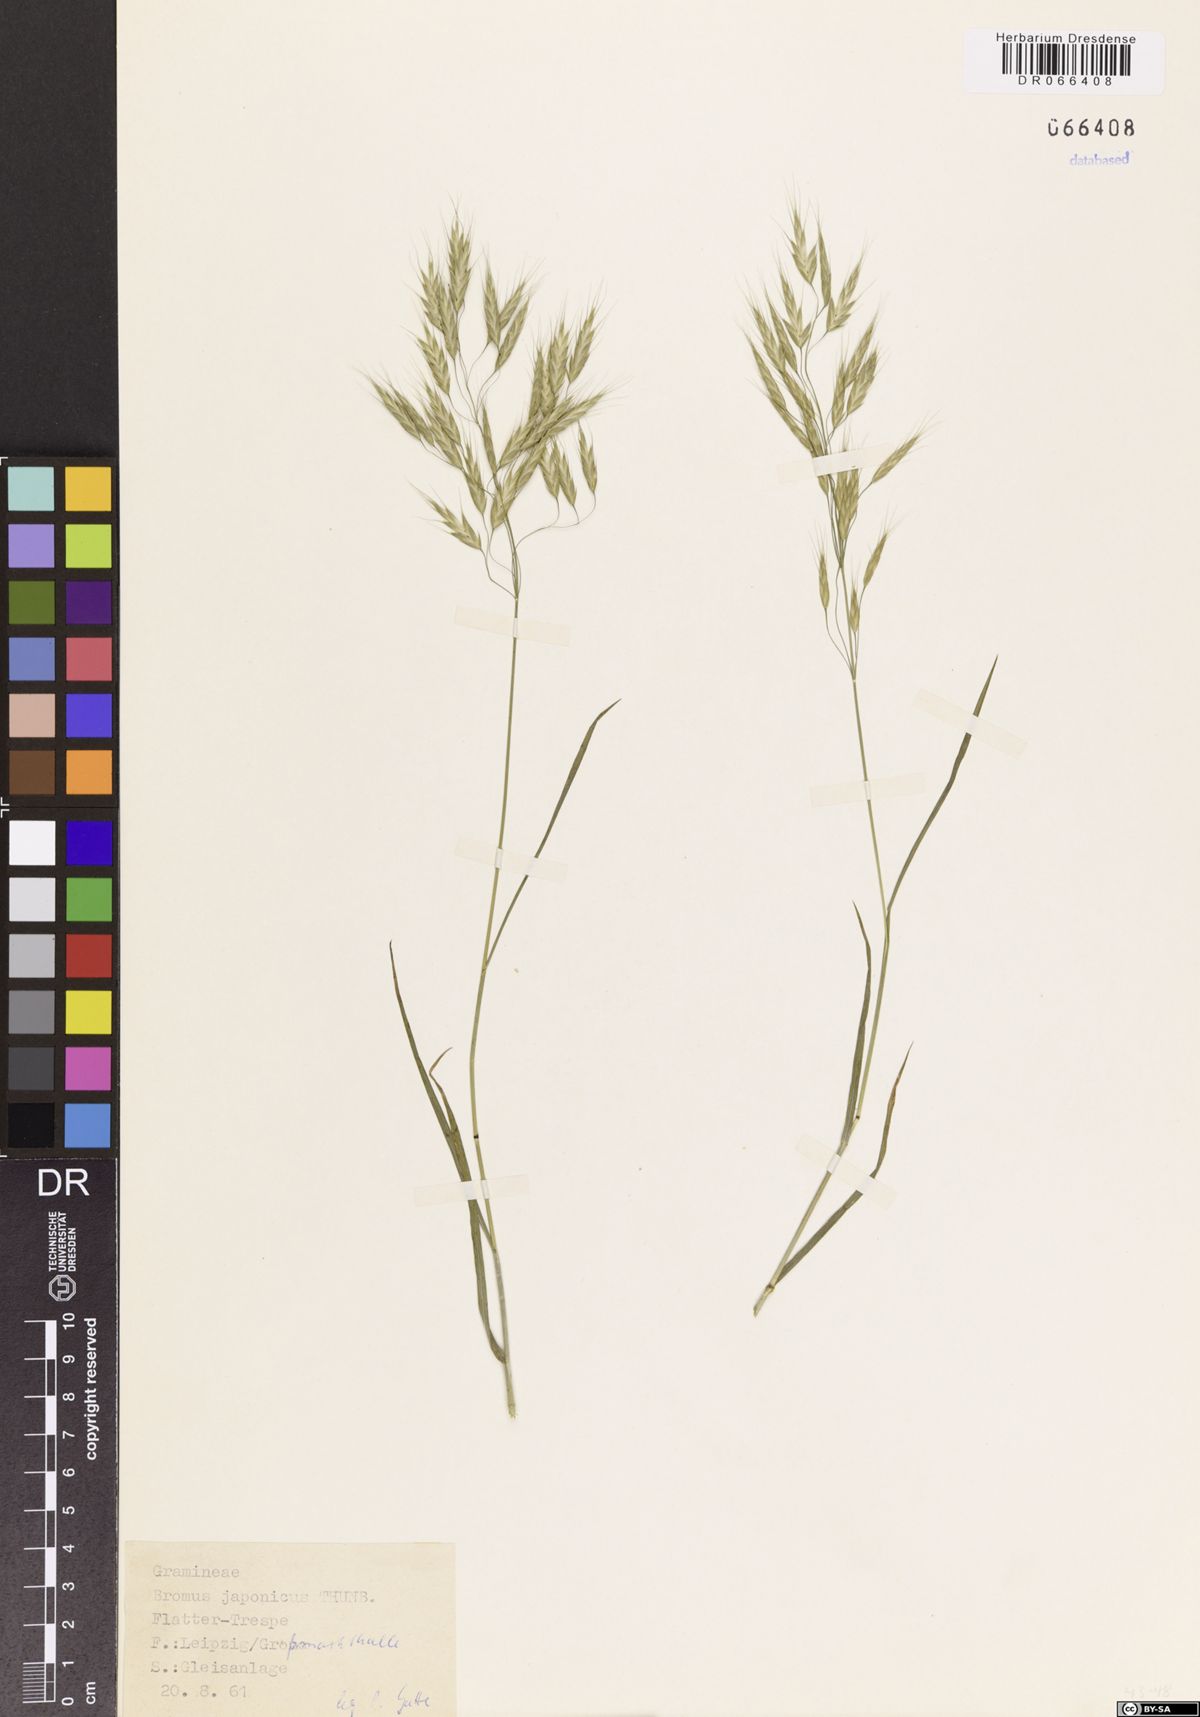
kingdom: Plantae
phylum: Tracheophyta
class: Liliopsida
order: Poales
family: Poaceae
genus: Bromus
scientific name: Bromus japonicus
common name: Japanese brome
